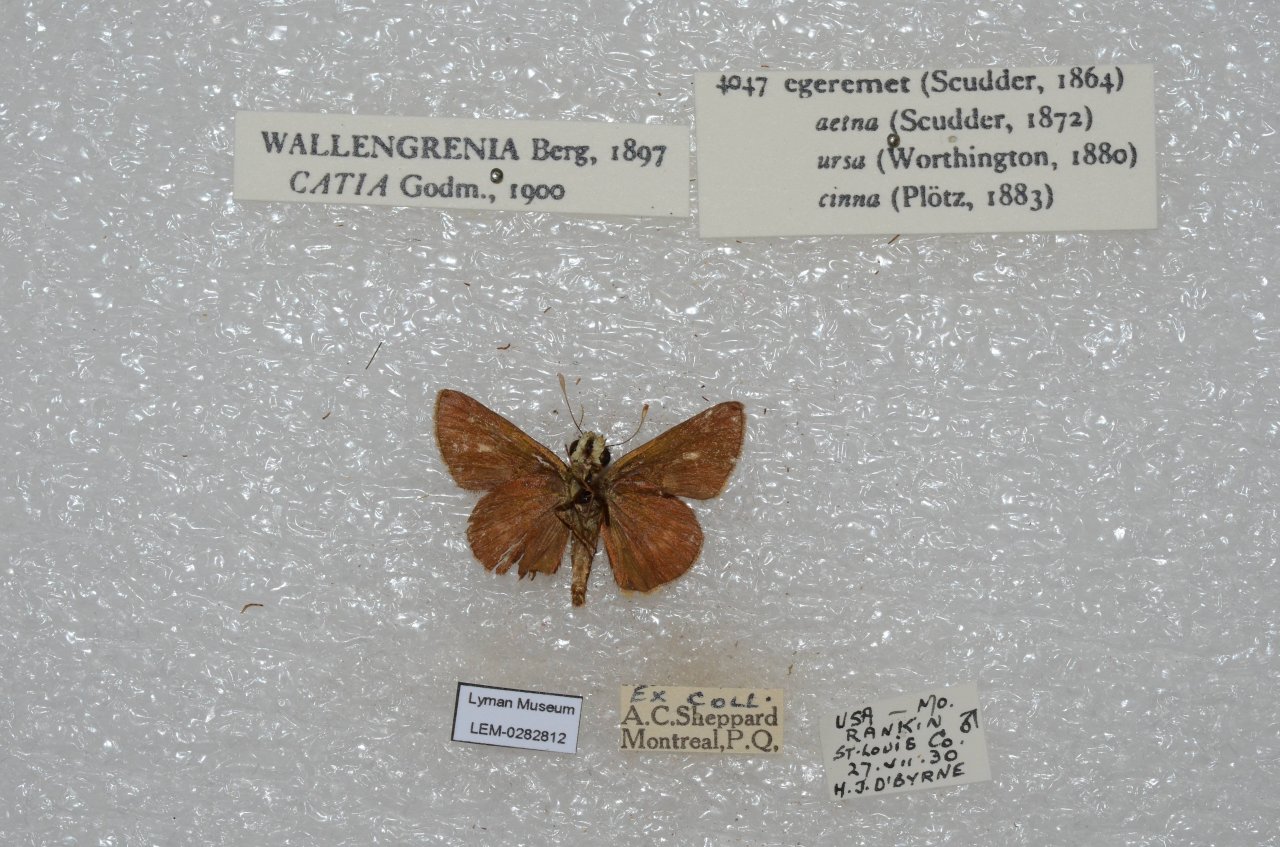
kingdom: Animalia
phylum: Arthropoda
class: Insecta
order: Lepidoptera
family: Hesperiidae
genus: Polites
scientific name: Polites egeremet
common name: Northern Broken-Dash
